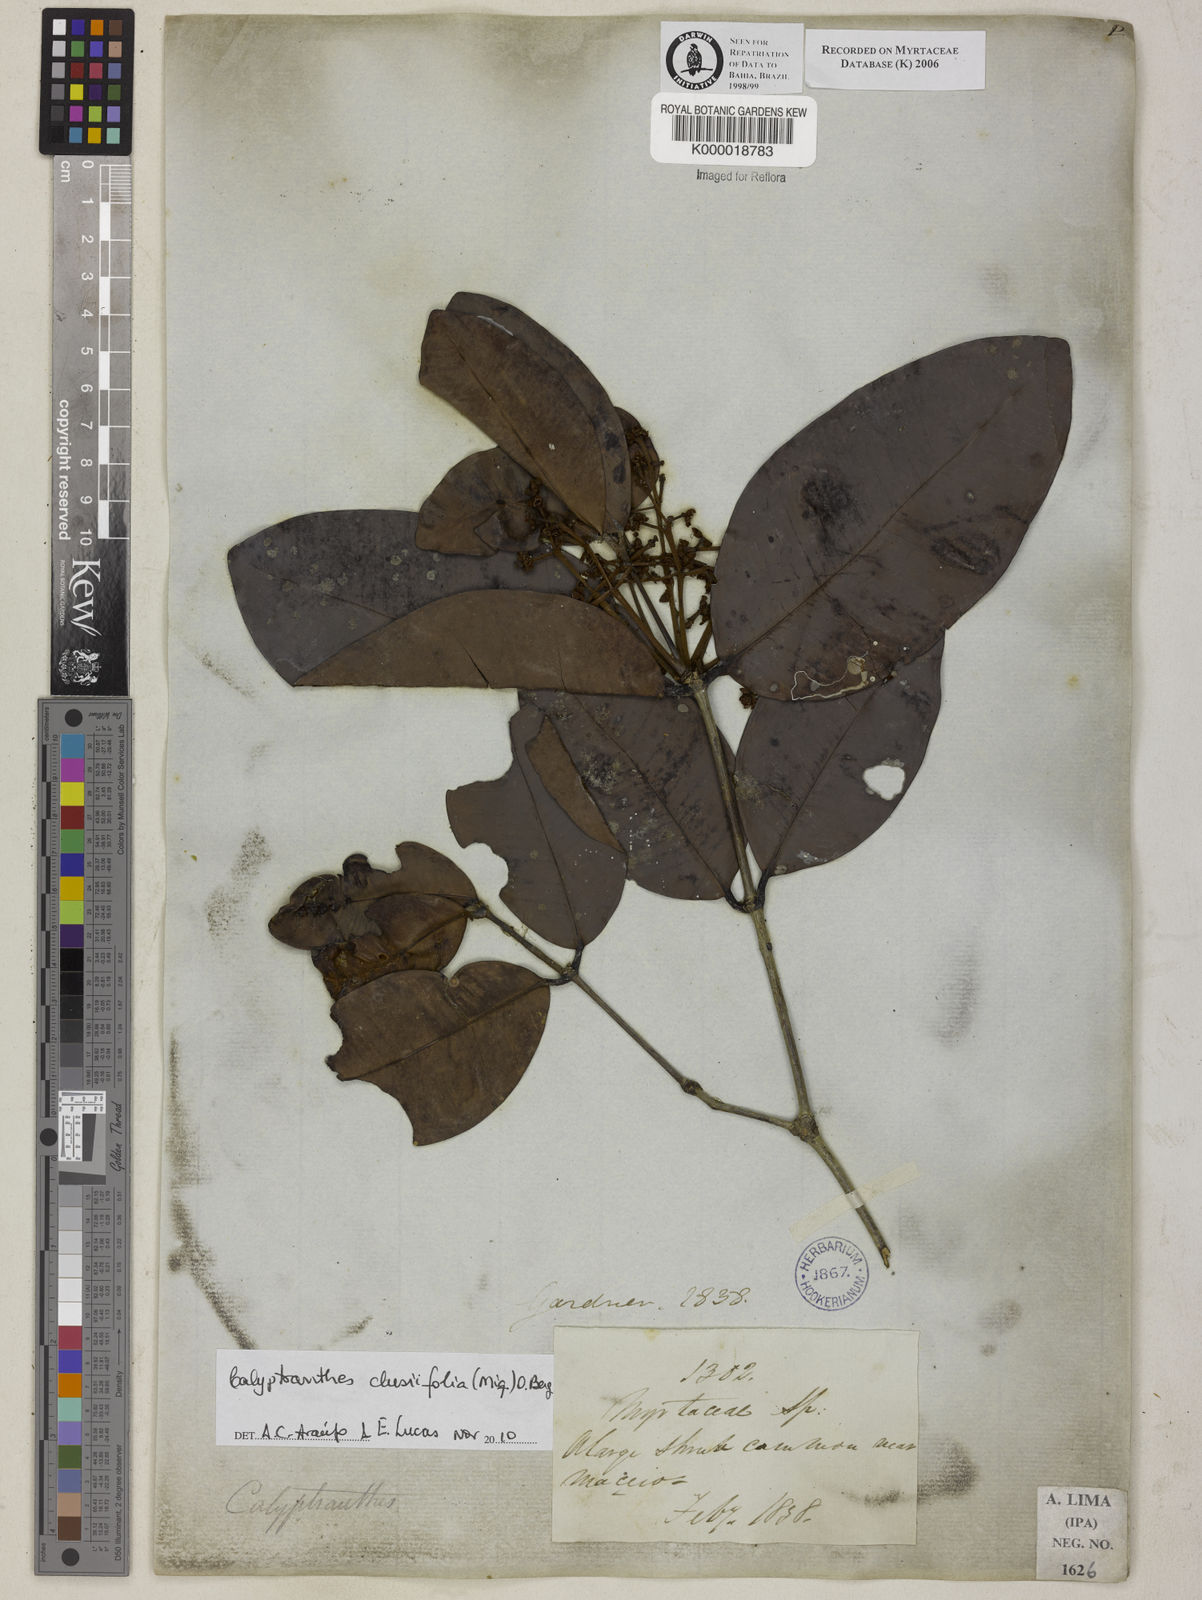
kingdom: Plantae
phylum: Tracheophyta
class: Magnoliopsida
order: Myrtales
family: Myrtaceae
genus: Calyptranthes
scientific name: Calyptranthes
